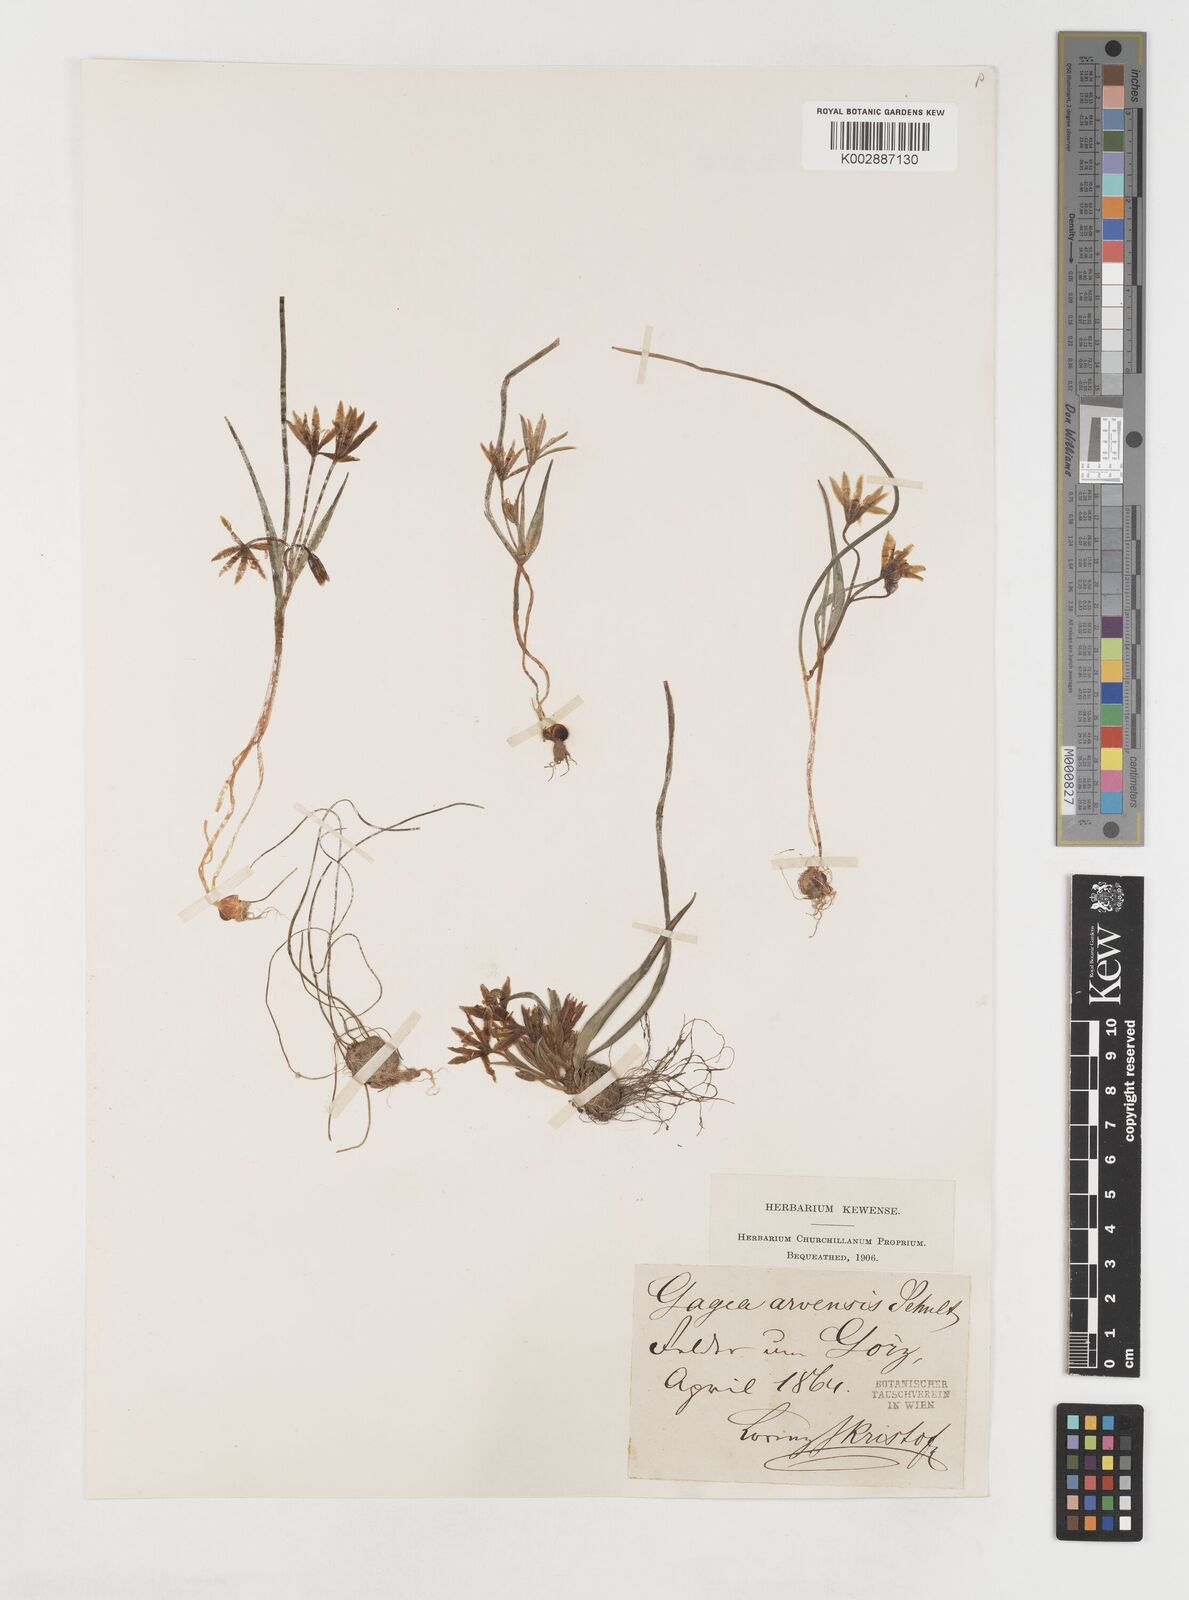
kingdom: Plantae
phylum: Tracheophyta
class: Liliopsida
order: Liliales
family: Liliaceae
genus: Gagea
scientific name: Gagea minima
